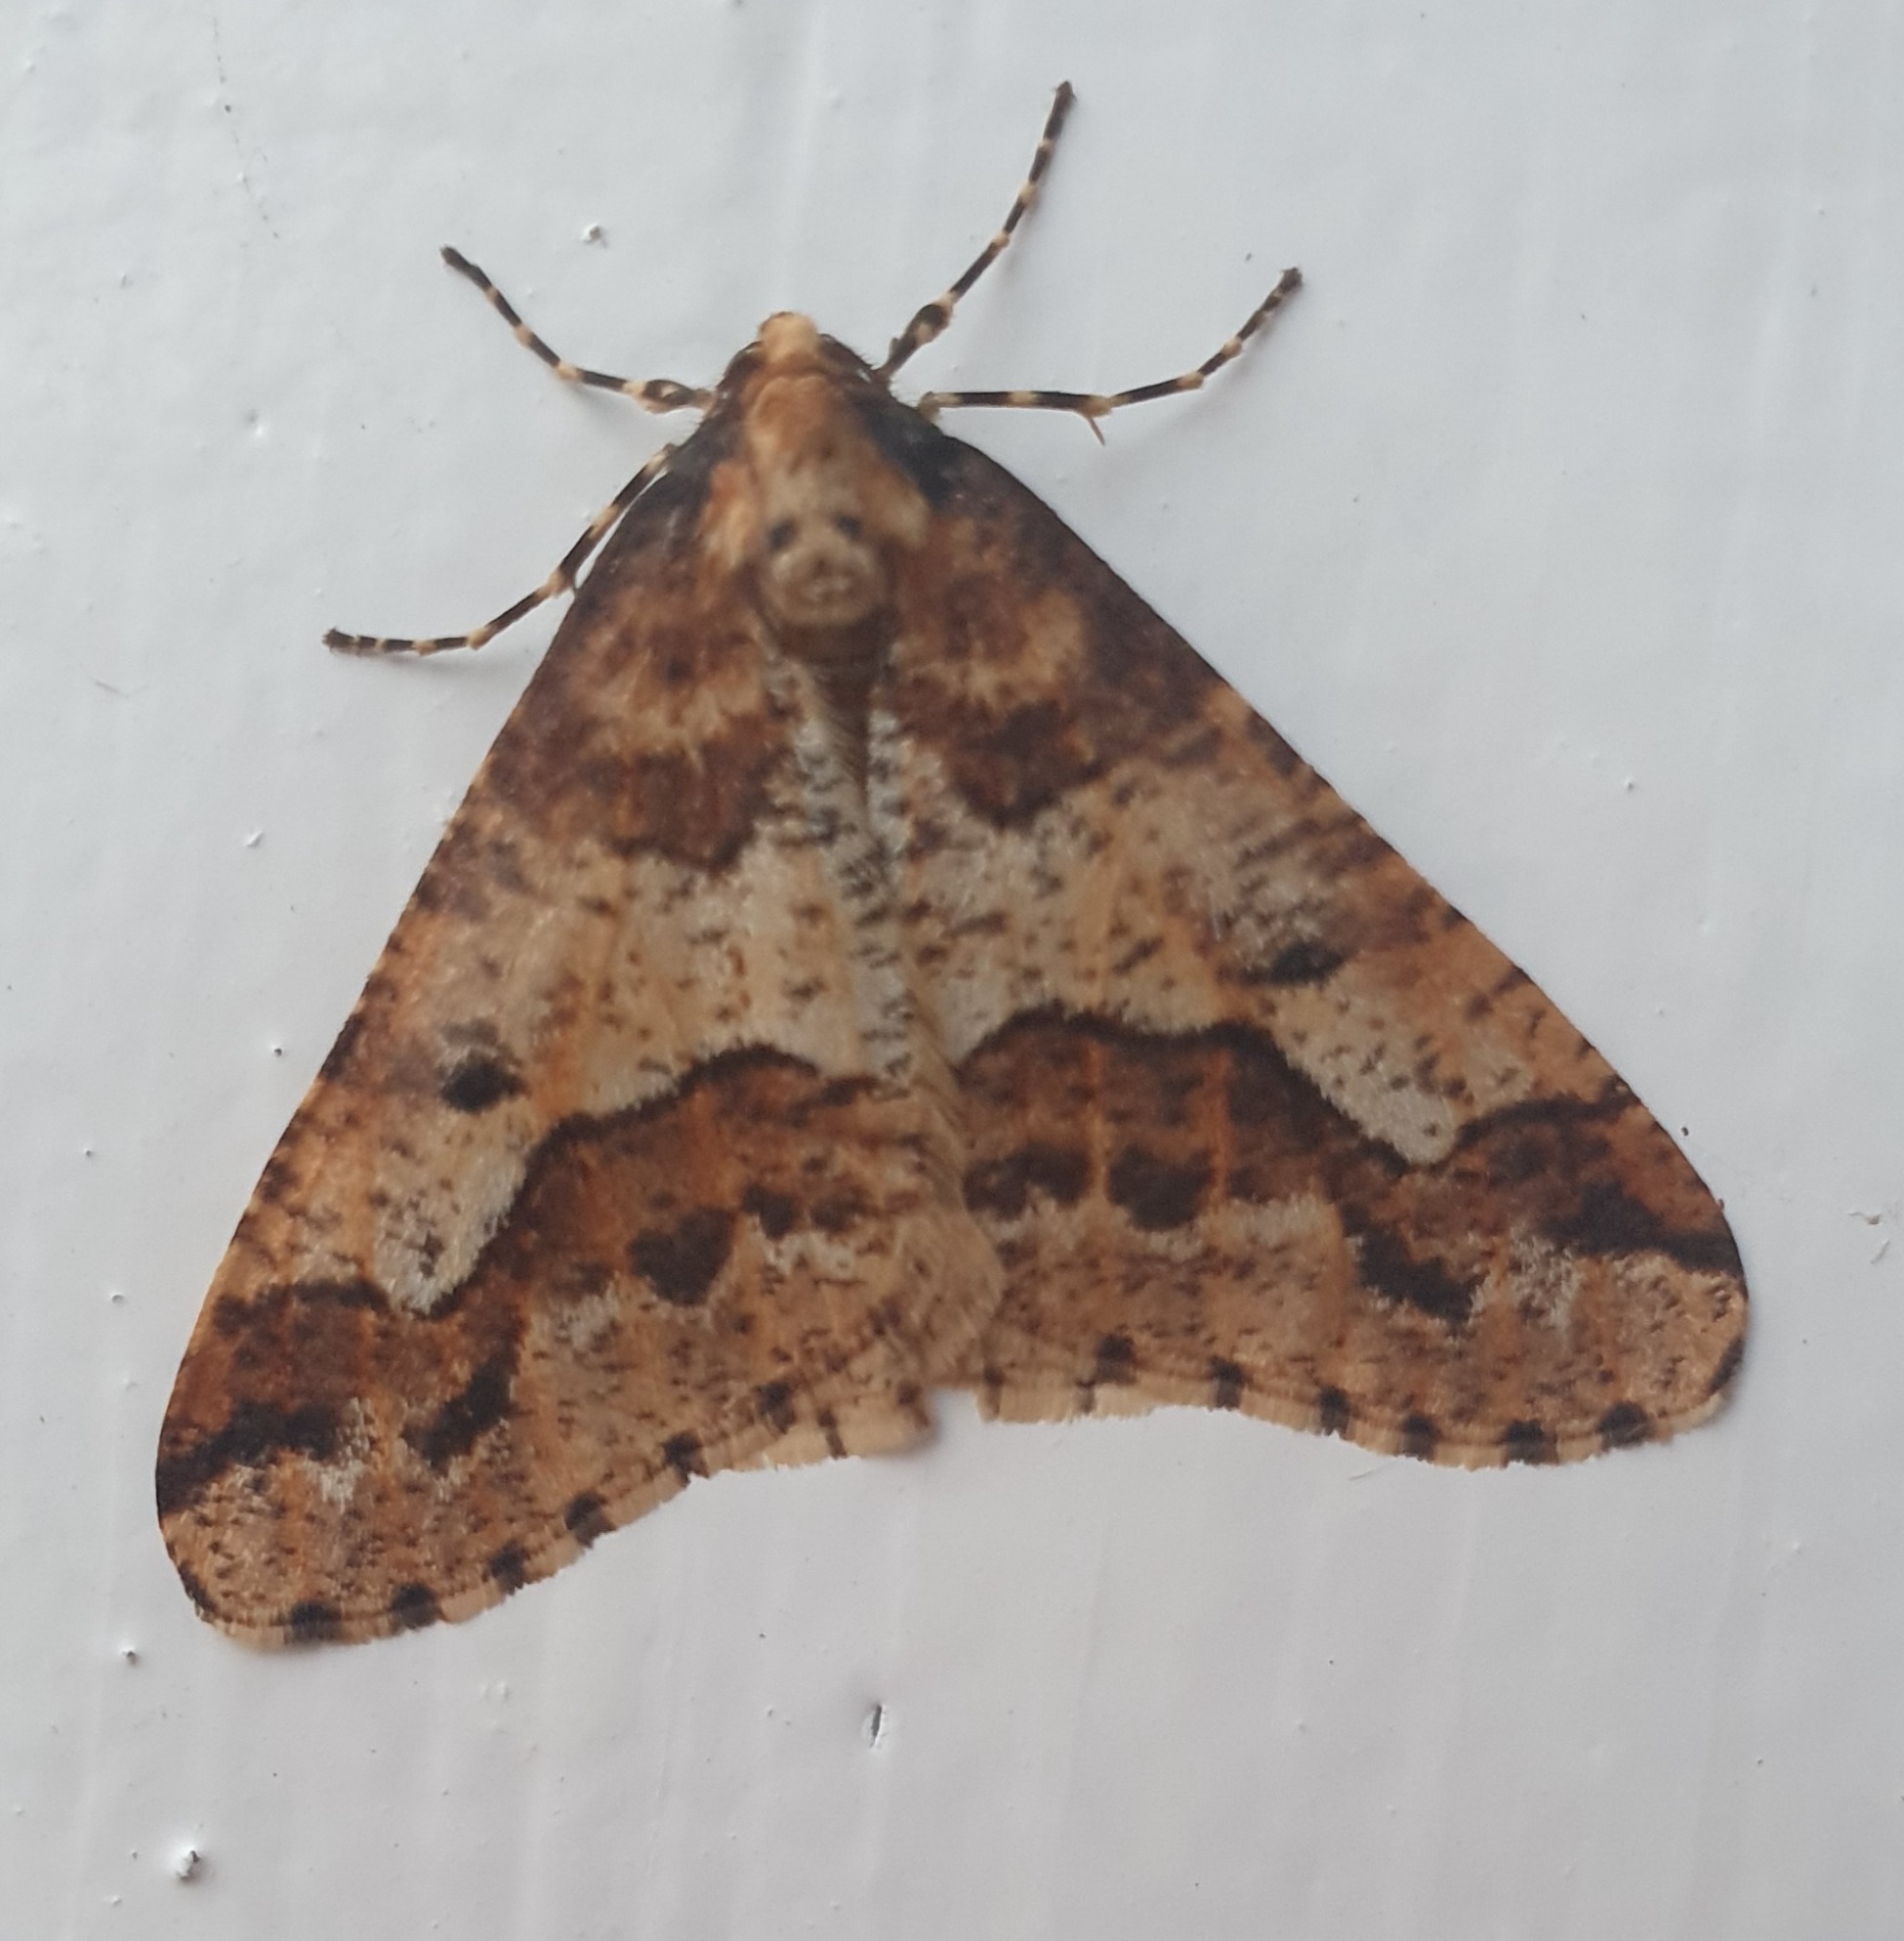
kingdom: Animalia
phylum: Arthropoda
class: Insecta
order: Lepidoptera
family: Geometridae
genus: Erannis
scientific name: Erannis defoliaria
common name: Stor frostmåler
